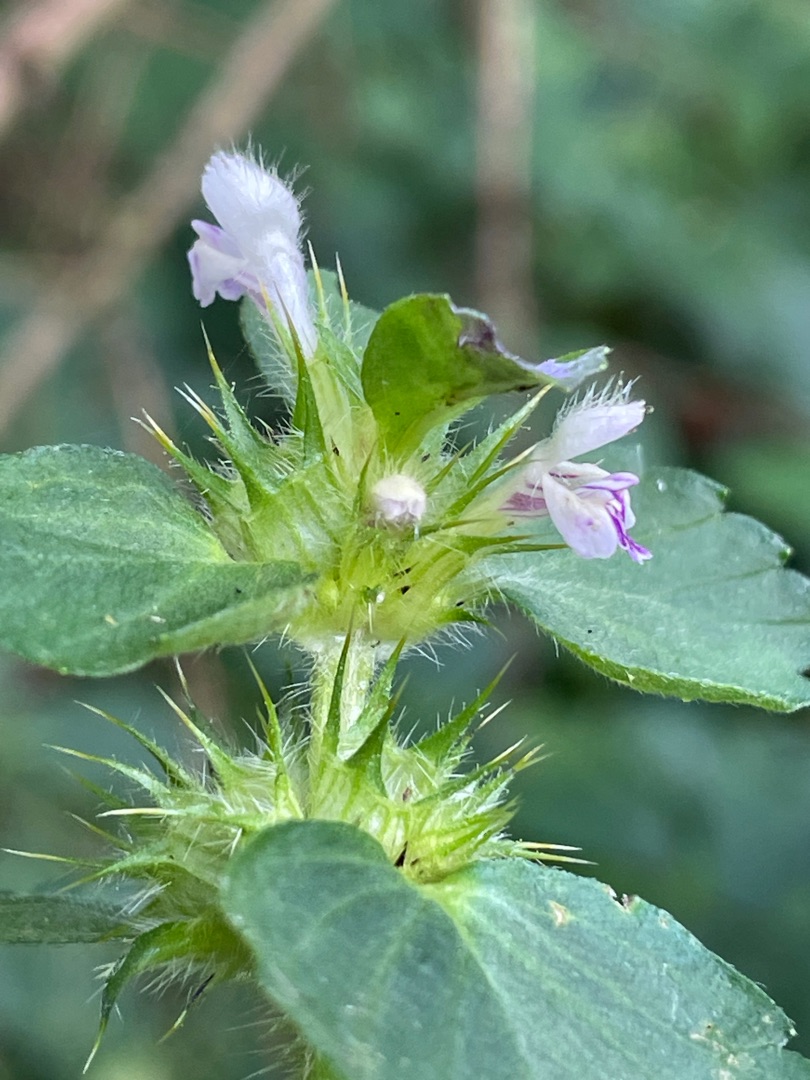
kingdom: Plantae
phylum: Tracheophyta
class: Magnoliopsida
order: Lamiales
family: Lamiaceae
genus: Galeopsis
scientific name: Galeopsis bifida
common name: Skov-hanekro
